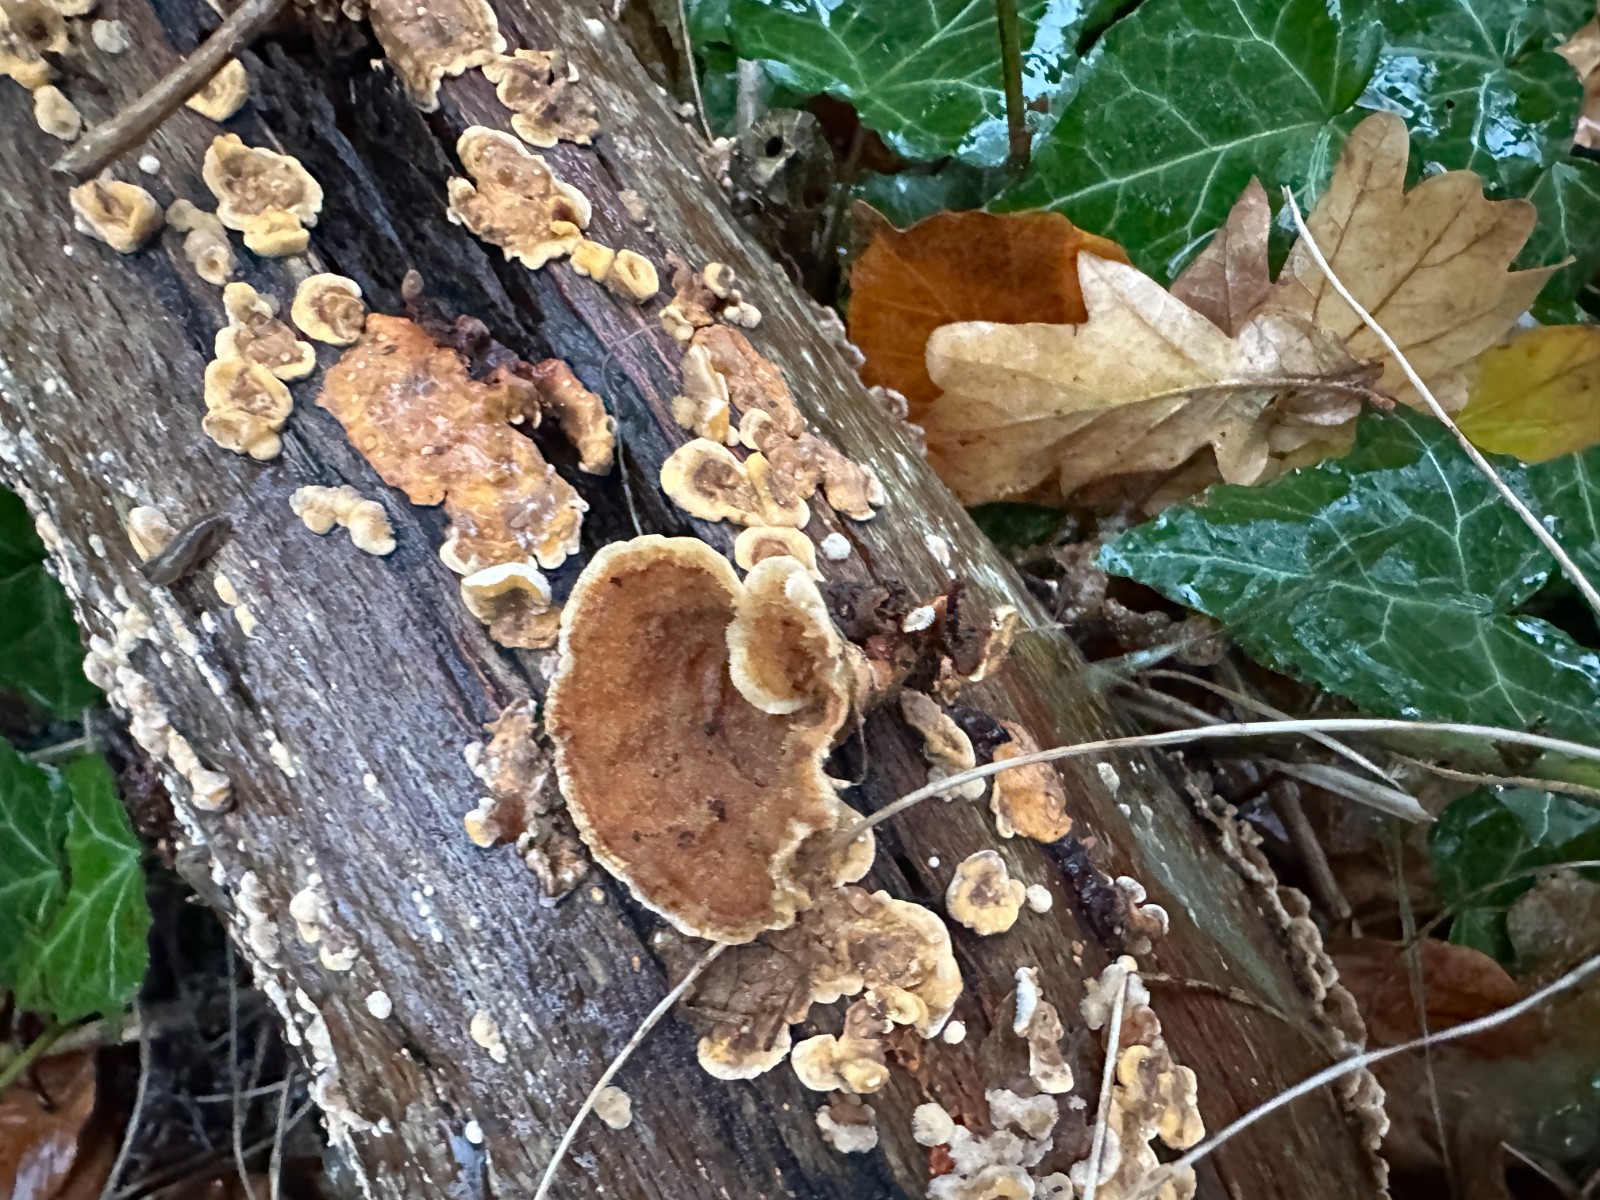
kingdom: Fungi
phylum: Basidiomycota
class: Agaricomycetes
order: Russulales
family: Stereaceae
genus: Stereum
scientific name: Stereum hirsutum
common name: håret lædersvamp
